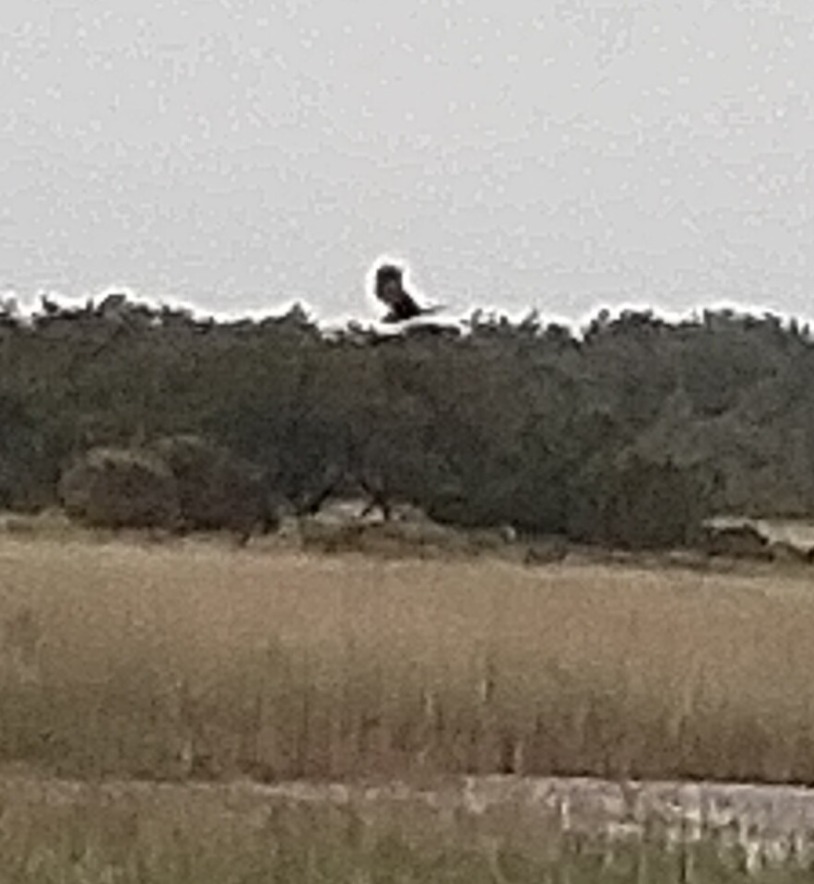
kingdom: Animalia
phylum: Chordata
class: Aves
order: Accipitriformes
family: Accipitridae
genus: Circus
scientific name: Circus aeruginosus
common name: Rørhøg
